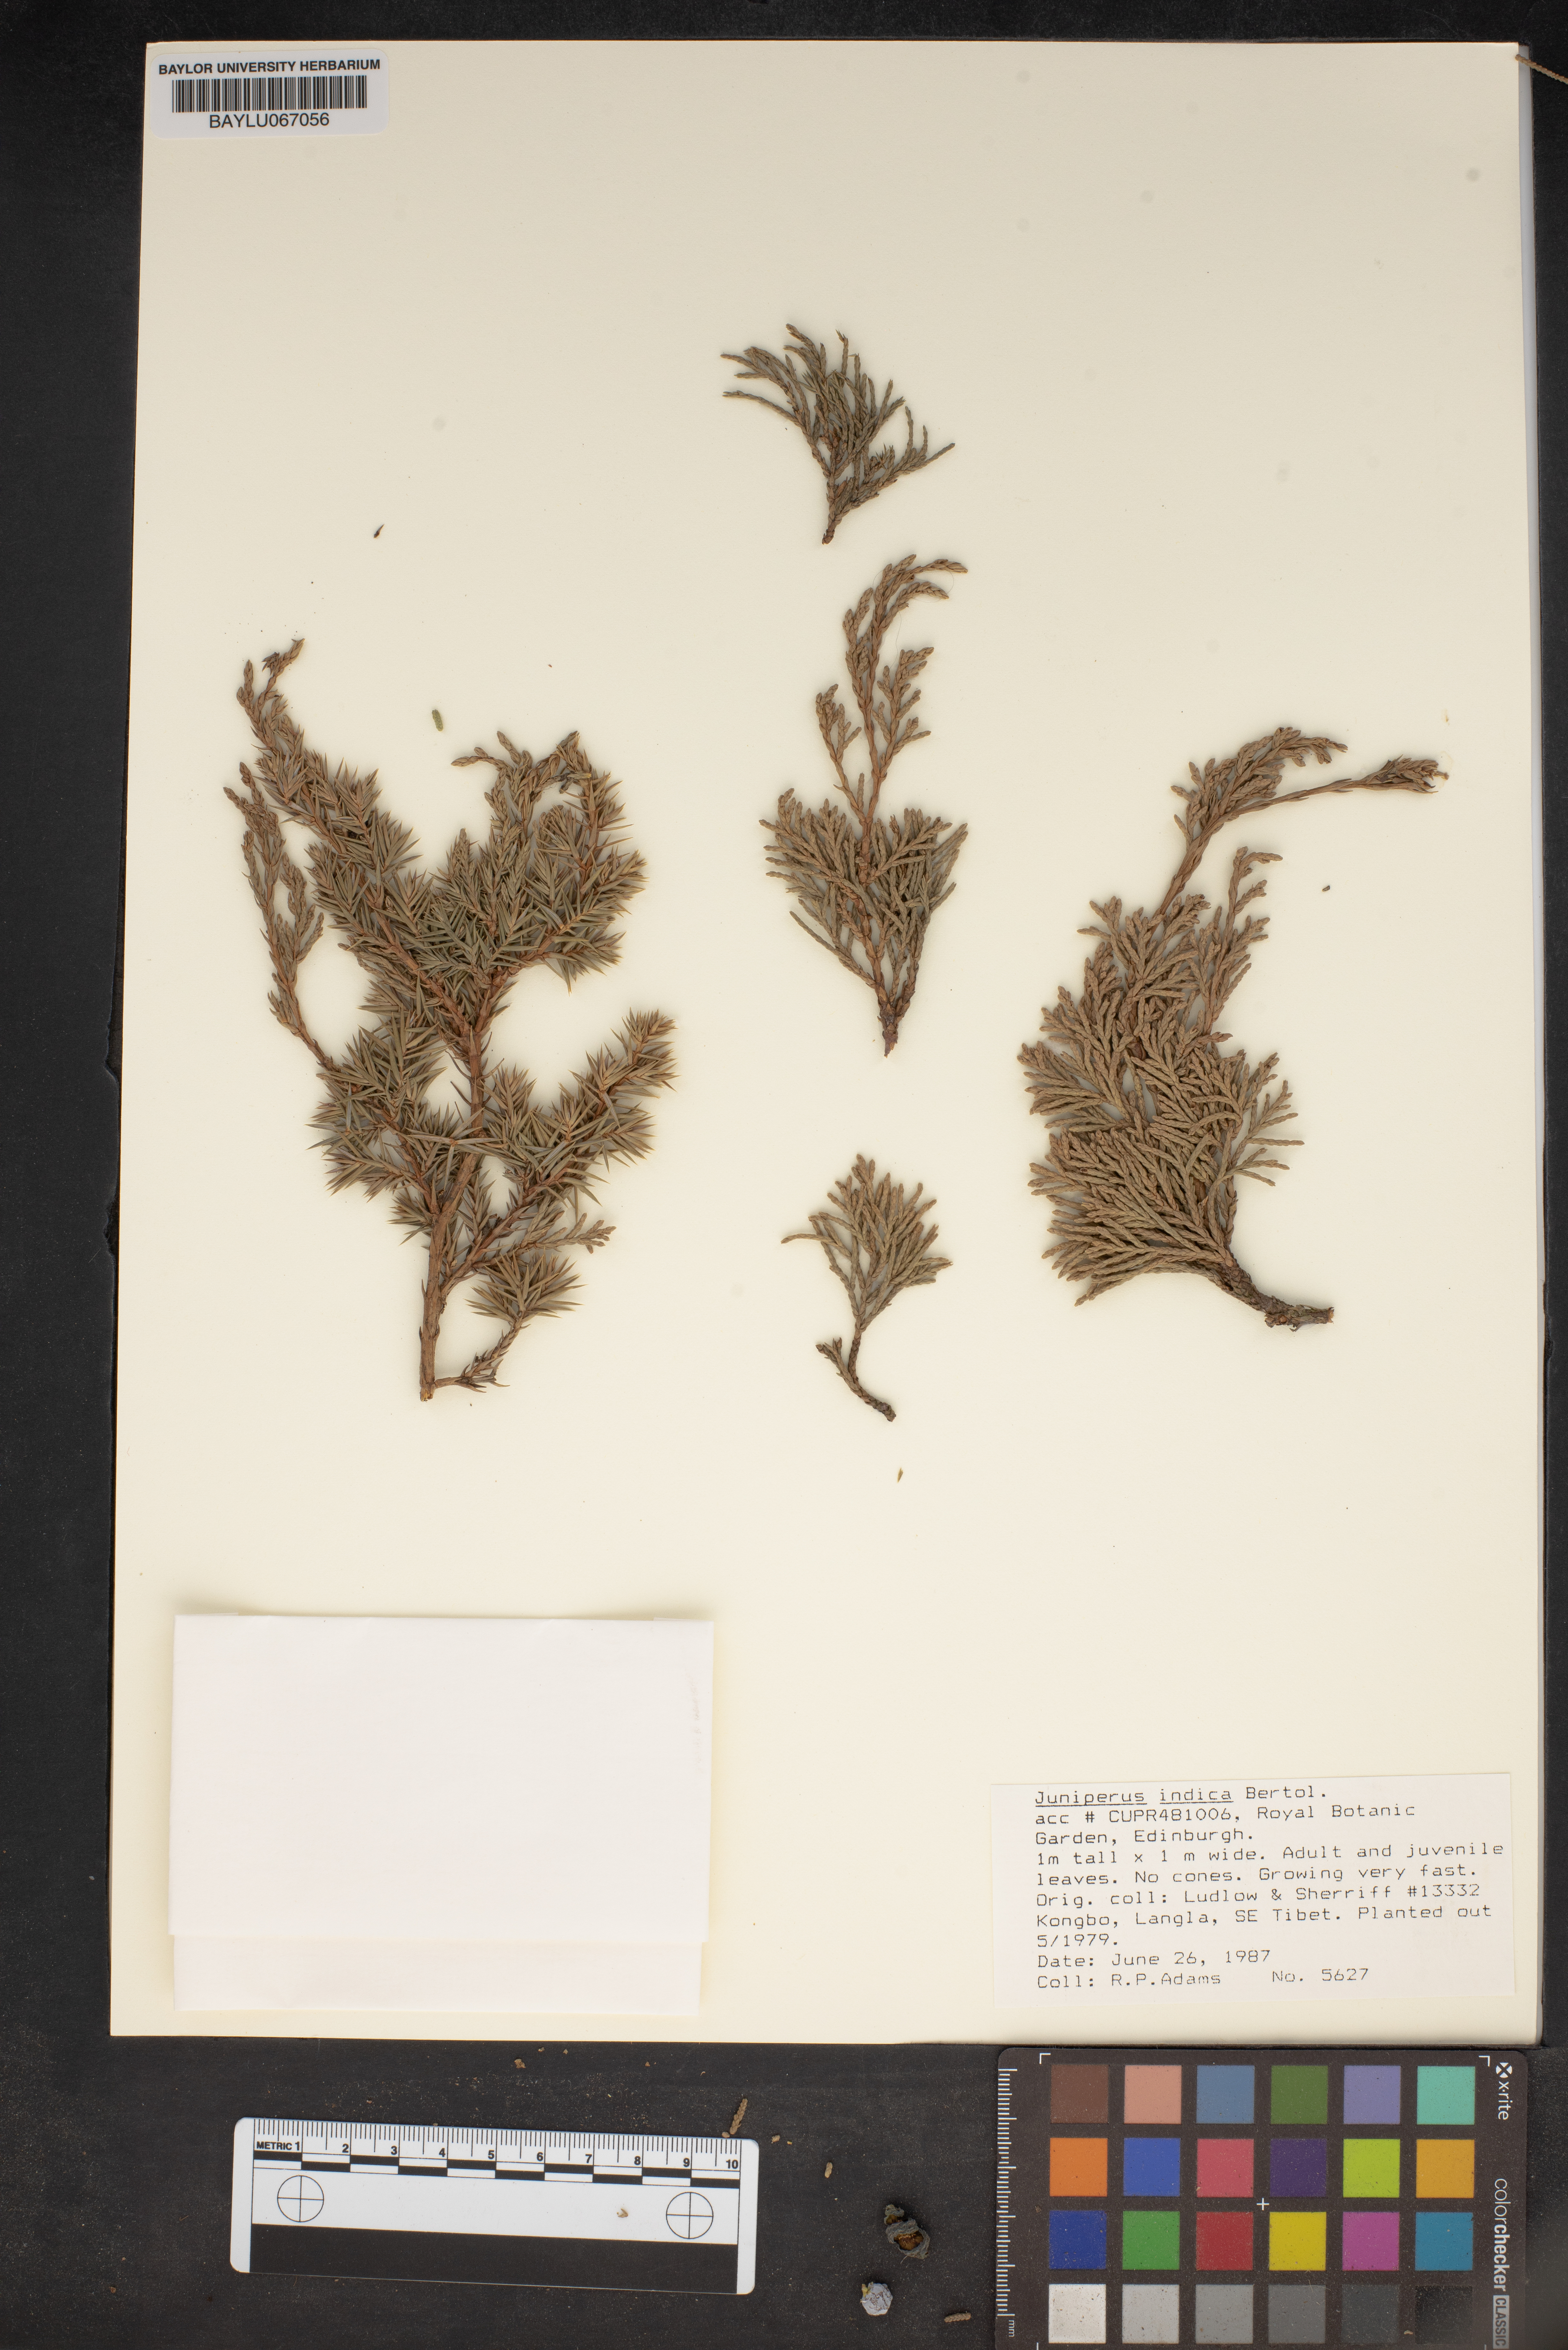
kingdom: Plantae
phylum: Tracheophyta
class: Pinopsida
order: Pinales
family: Cupressaceae
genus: Juniperus
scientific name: Juniperus indica
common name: Black juniper
